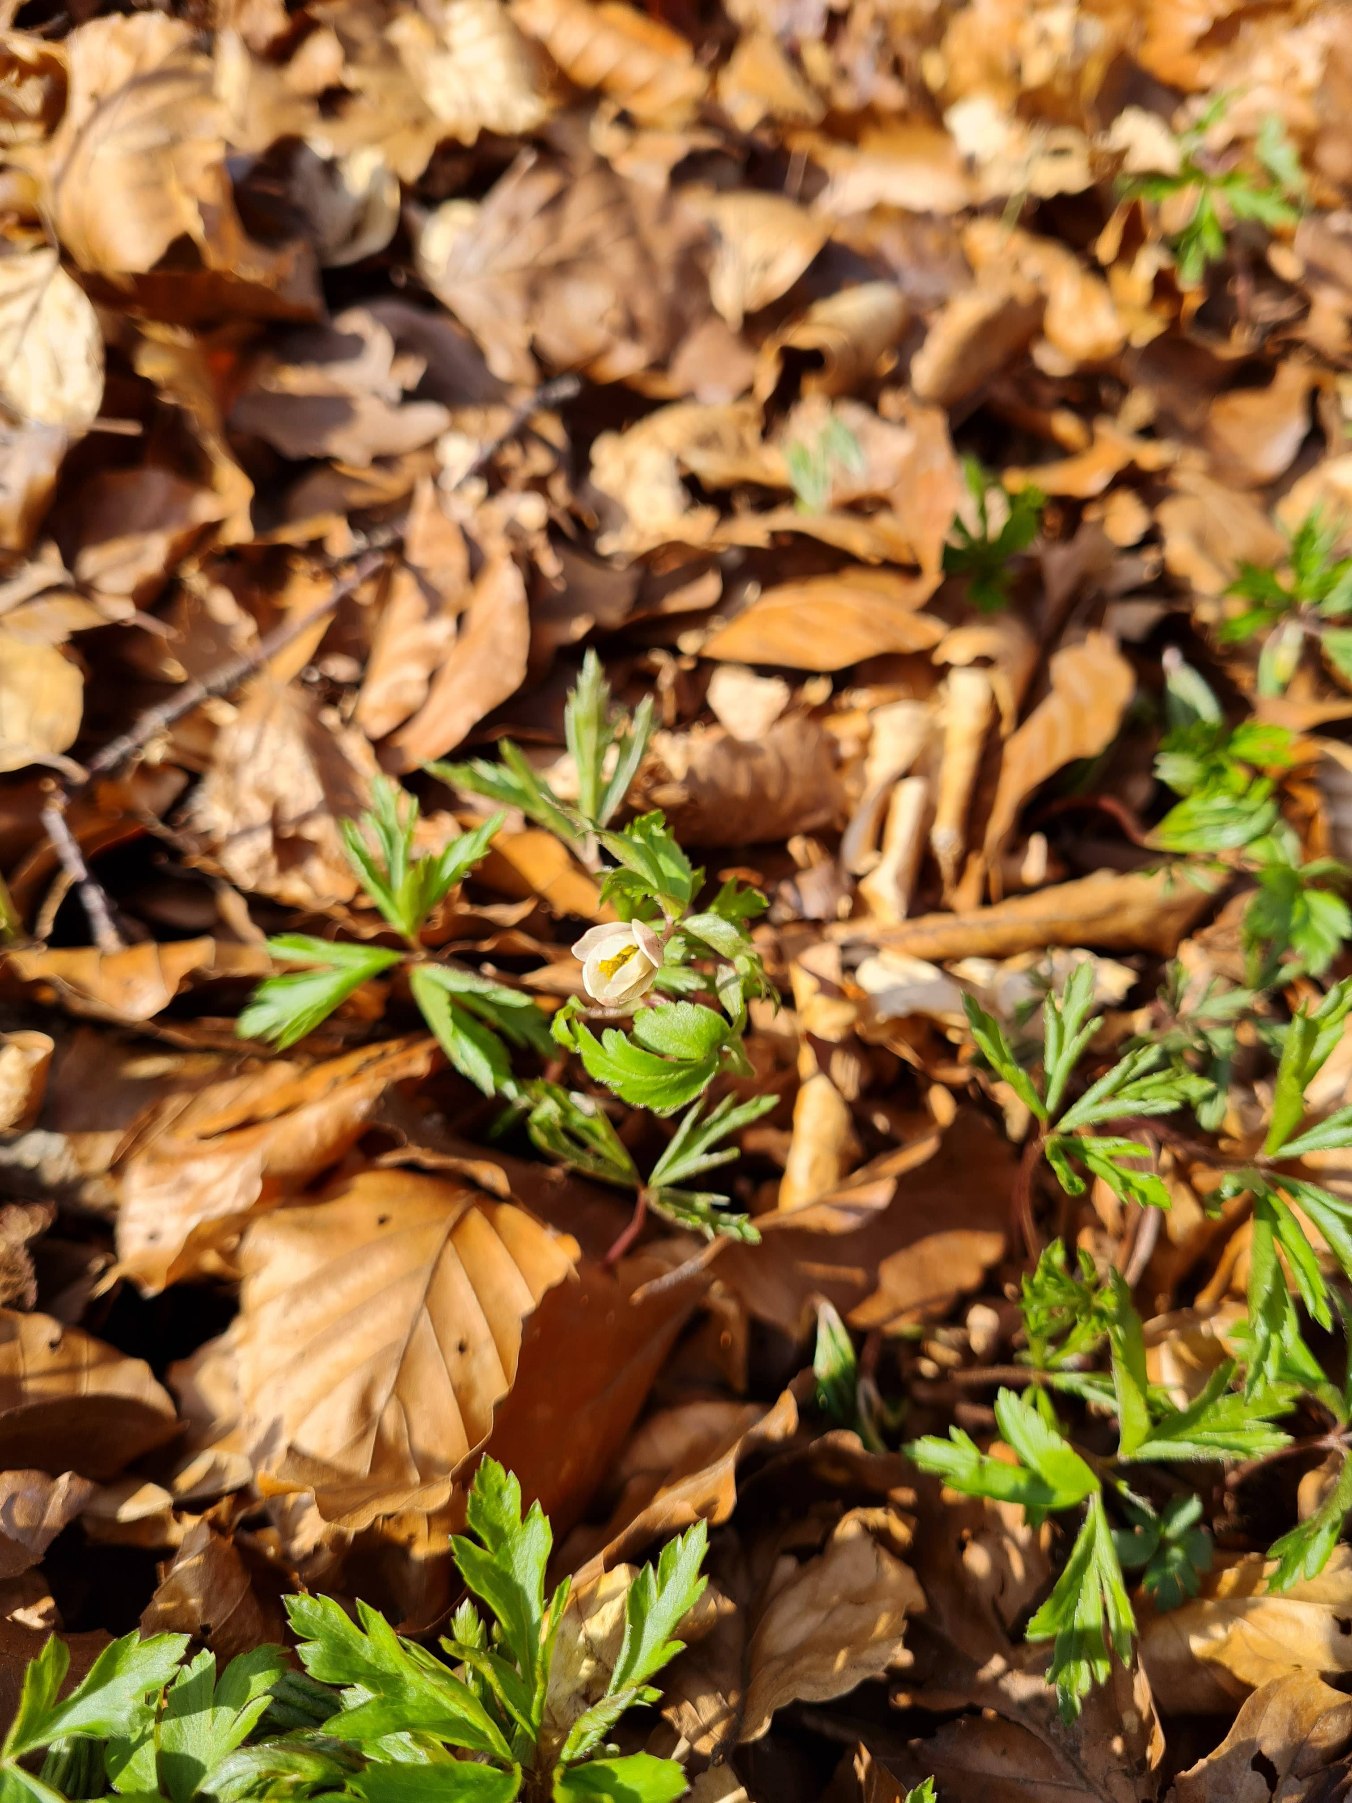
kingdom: Plantae
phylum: Tracheophyta
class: Magnoliopsida
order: Ranunculales
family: Ranunculaceae
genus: Anemone
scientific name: Anemone nemorosa
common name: Hvid anemone
